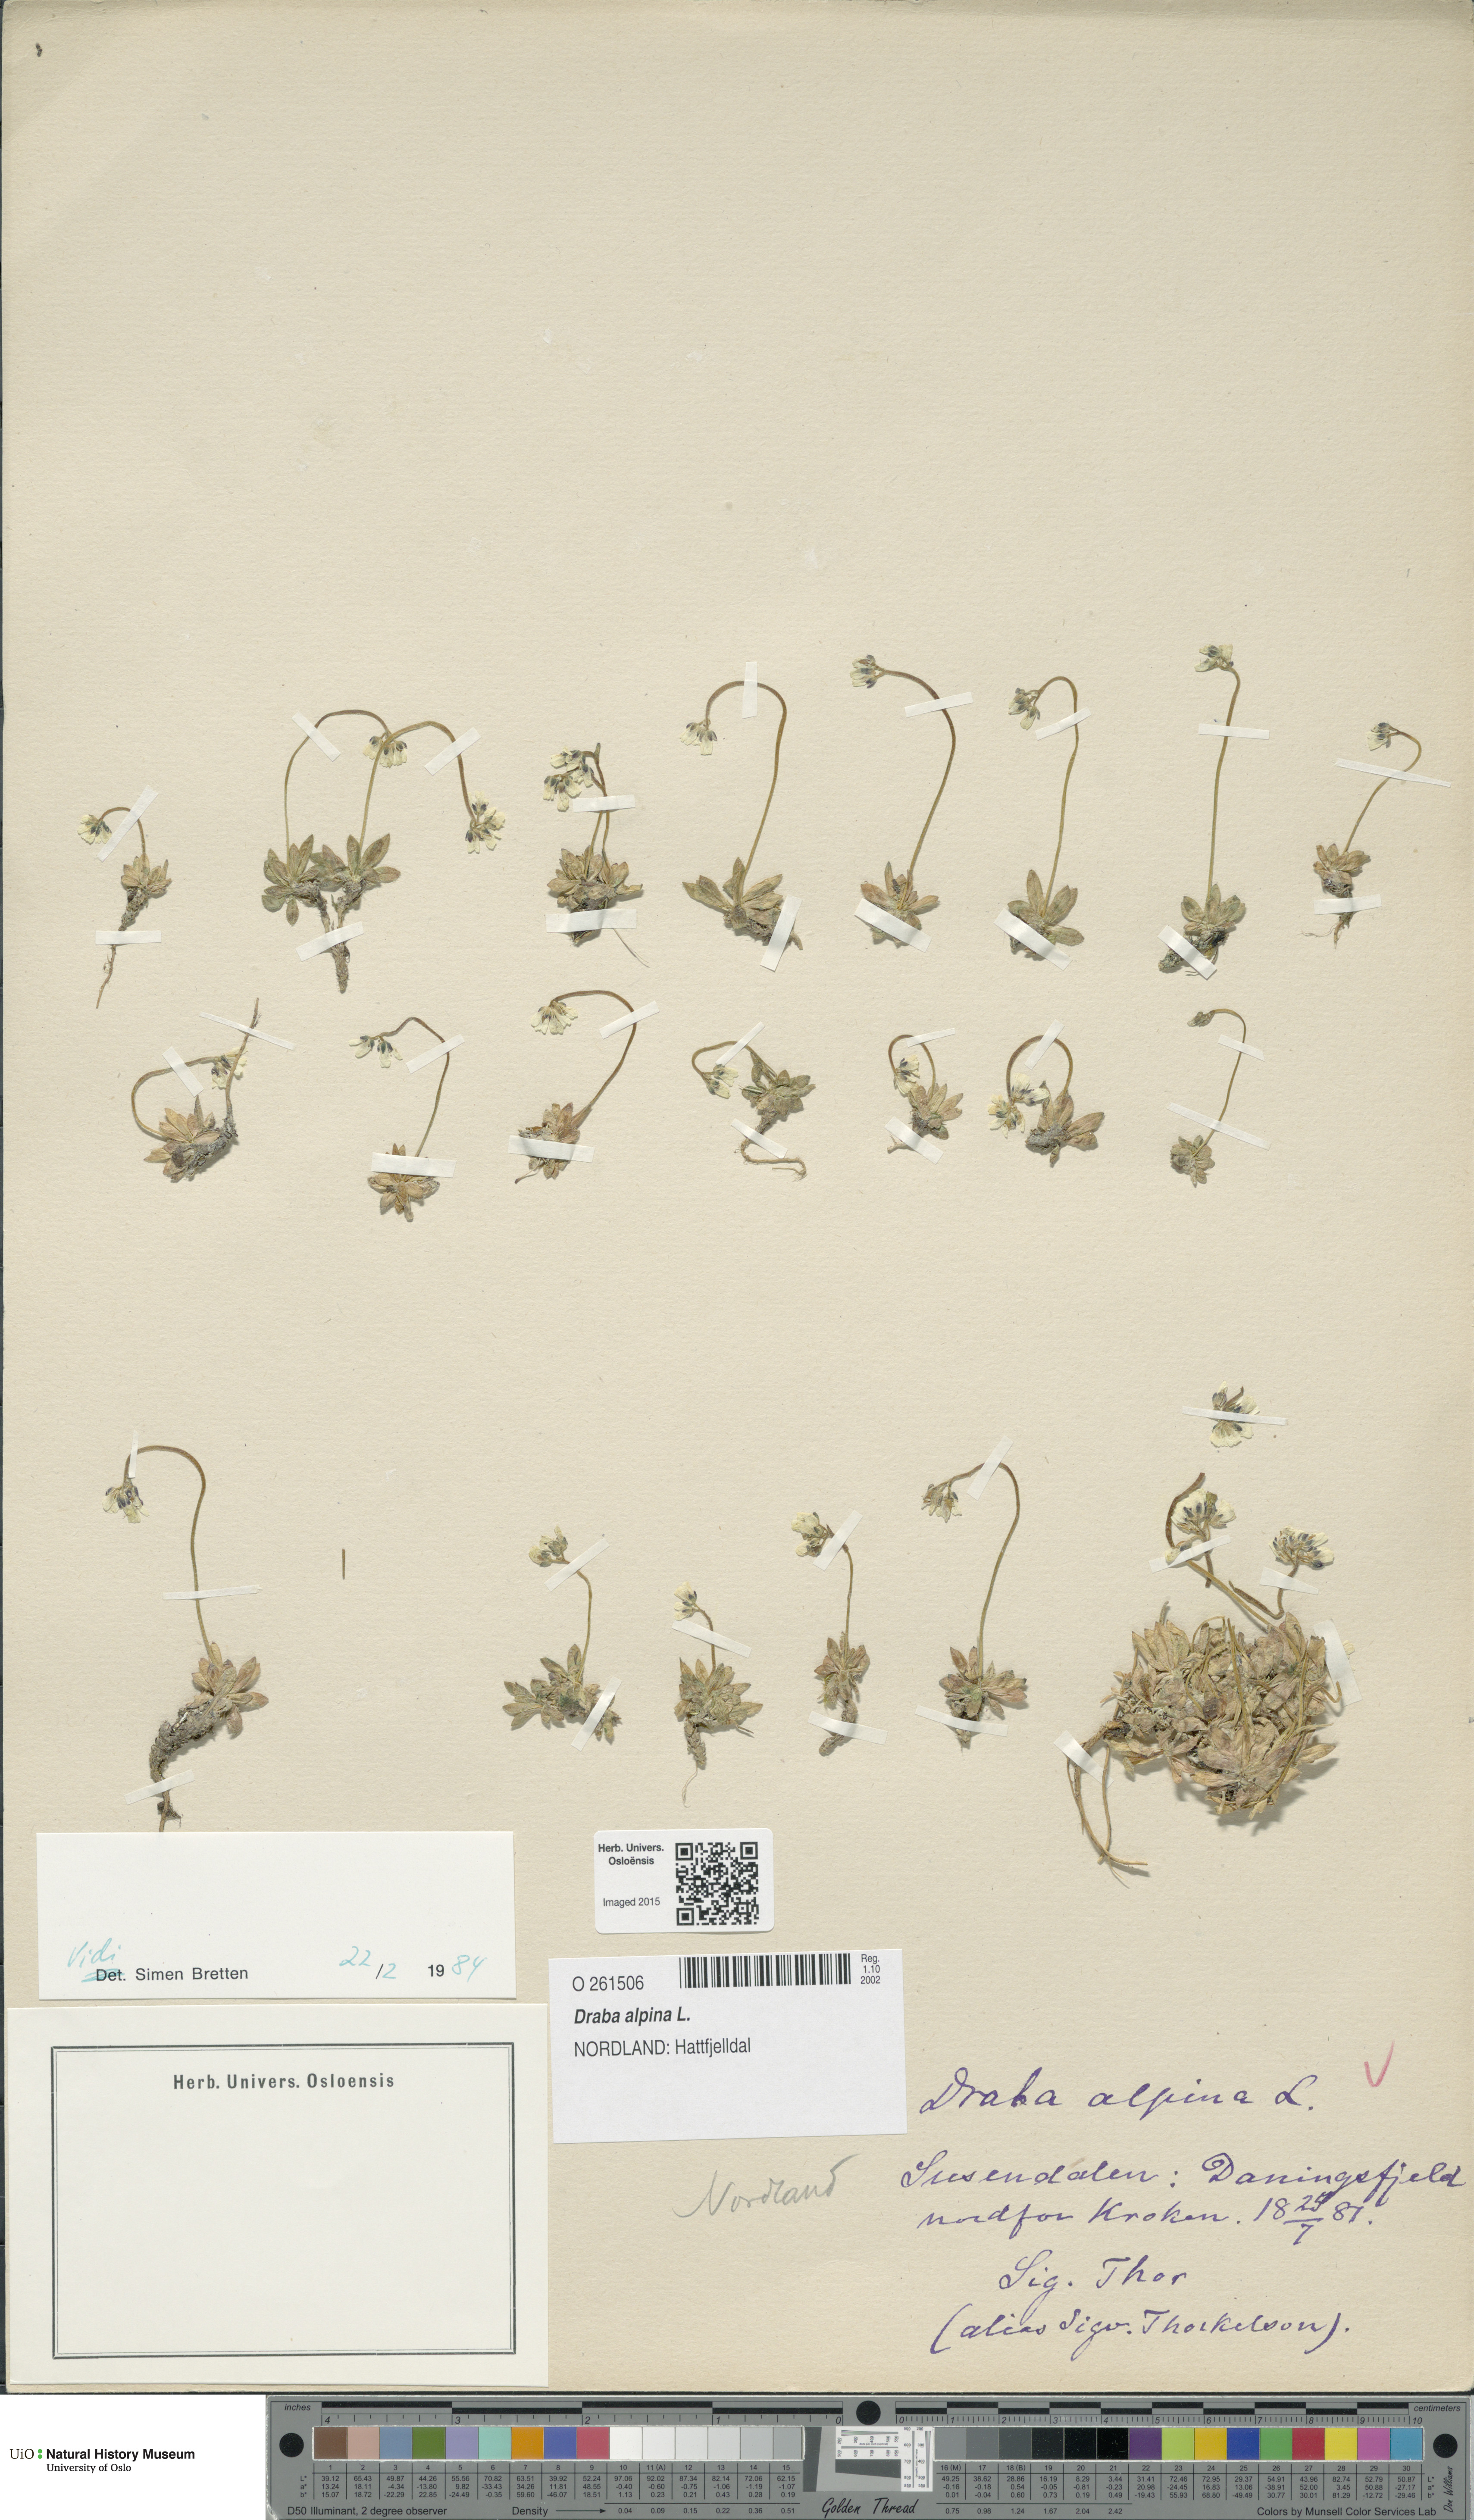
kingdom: Plantae
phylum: Tracheophyta
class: Magnoliopsida
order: Brassicales
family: Brassicaceae
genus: Draba
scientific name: Draba alpina
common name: Alpine draba
